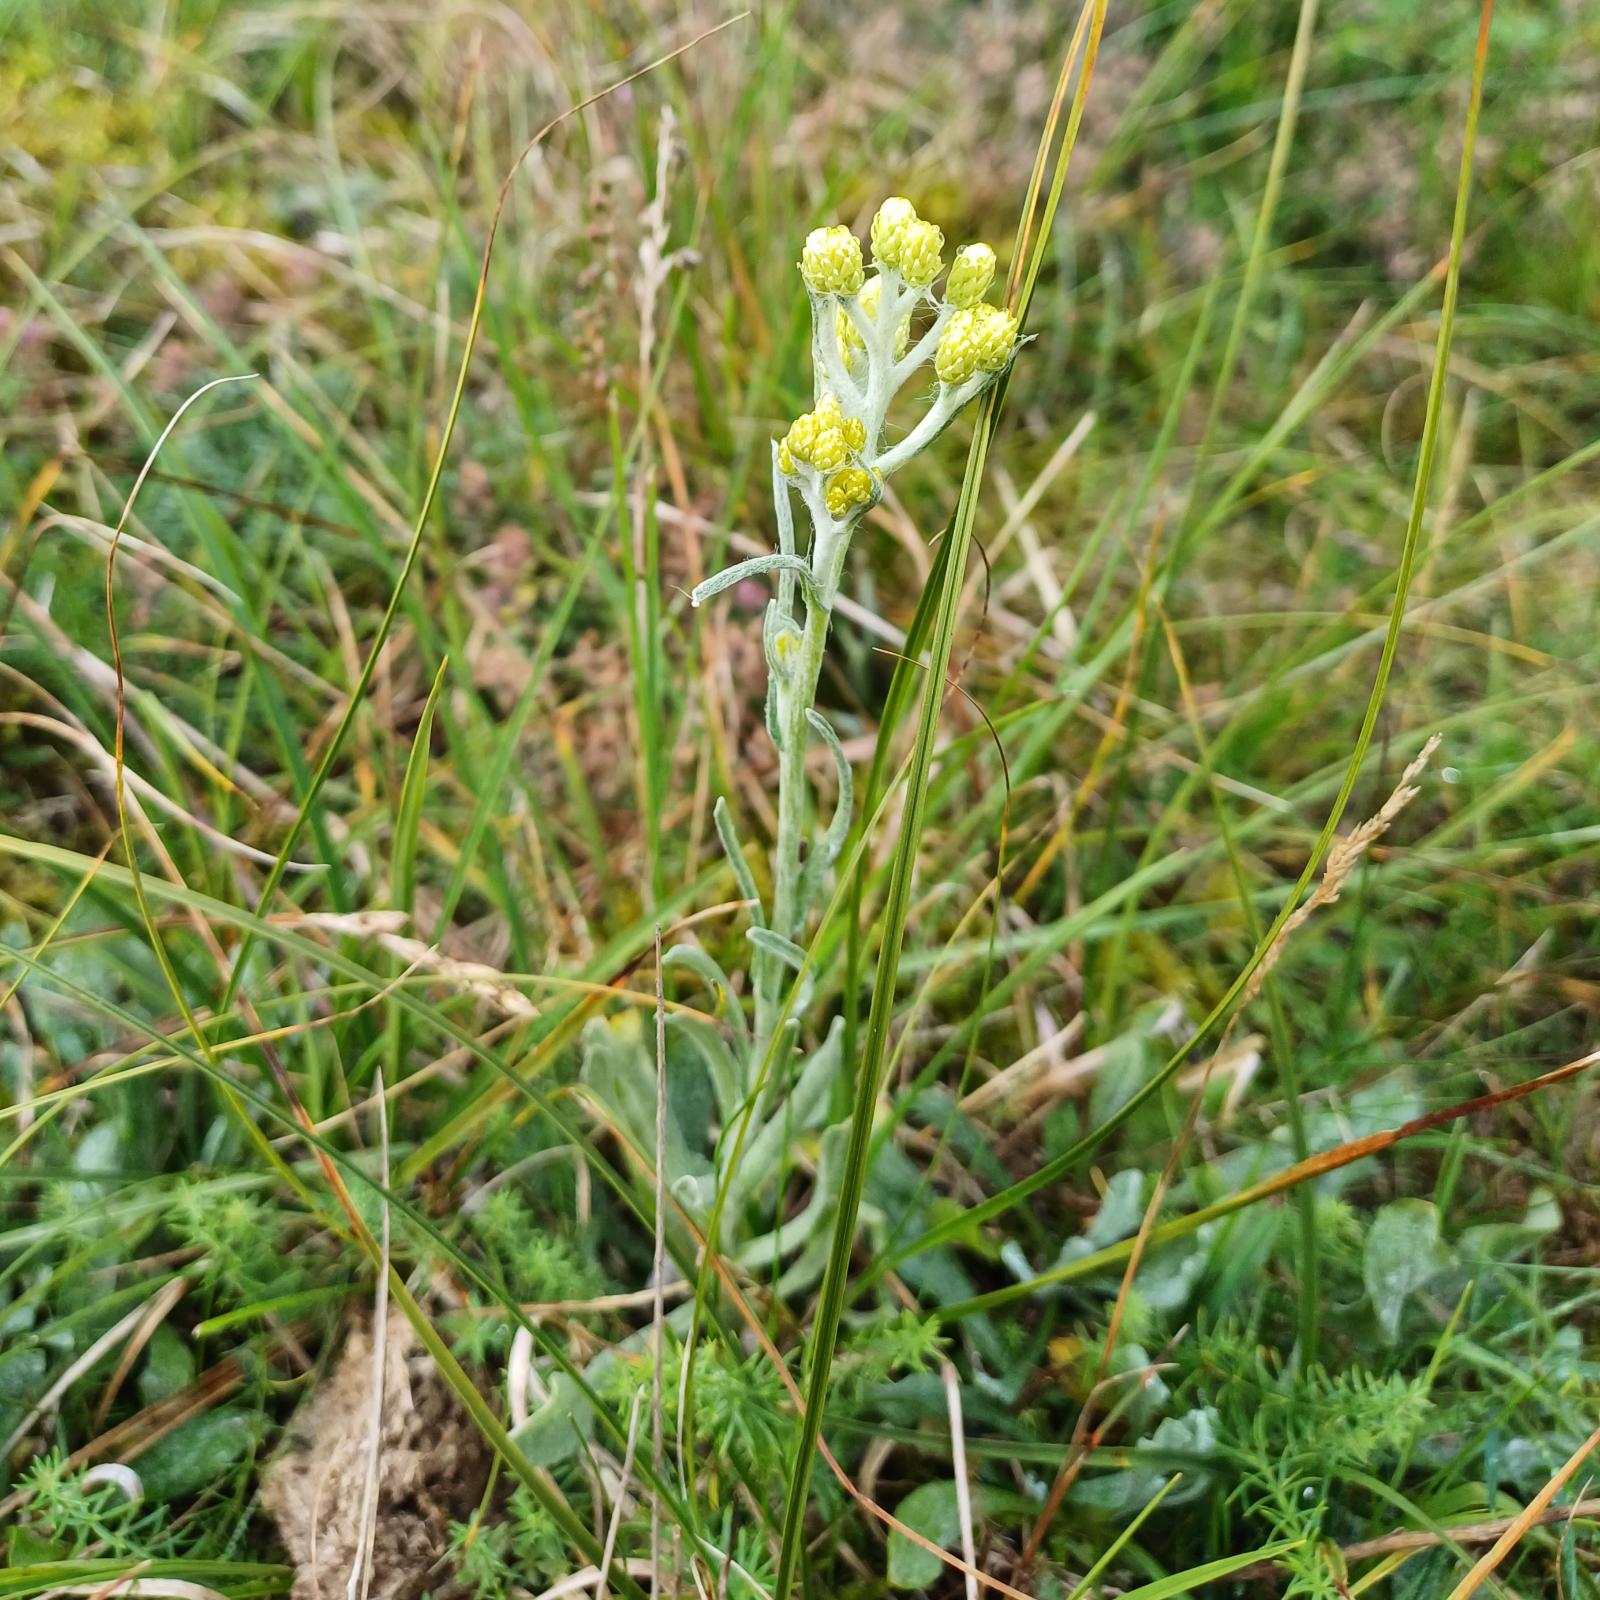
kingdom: Plantae
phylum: Tracheophyta
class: Magnoliopsida
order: Asterales
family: Asteraceae
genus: Helichrysum
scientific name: Helichrysum arenarium
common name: Gul evighedsblomst
